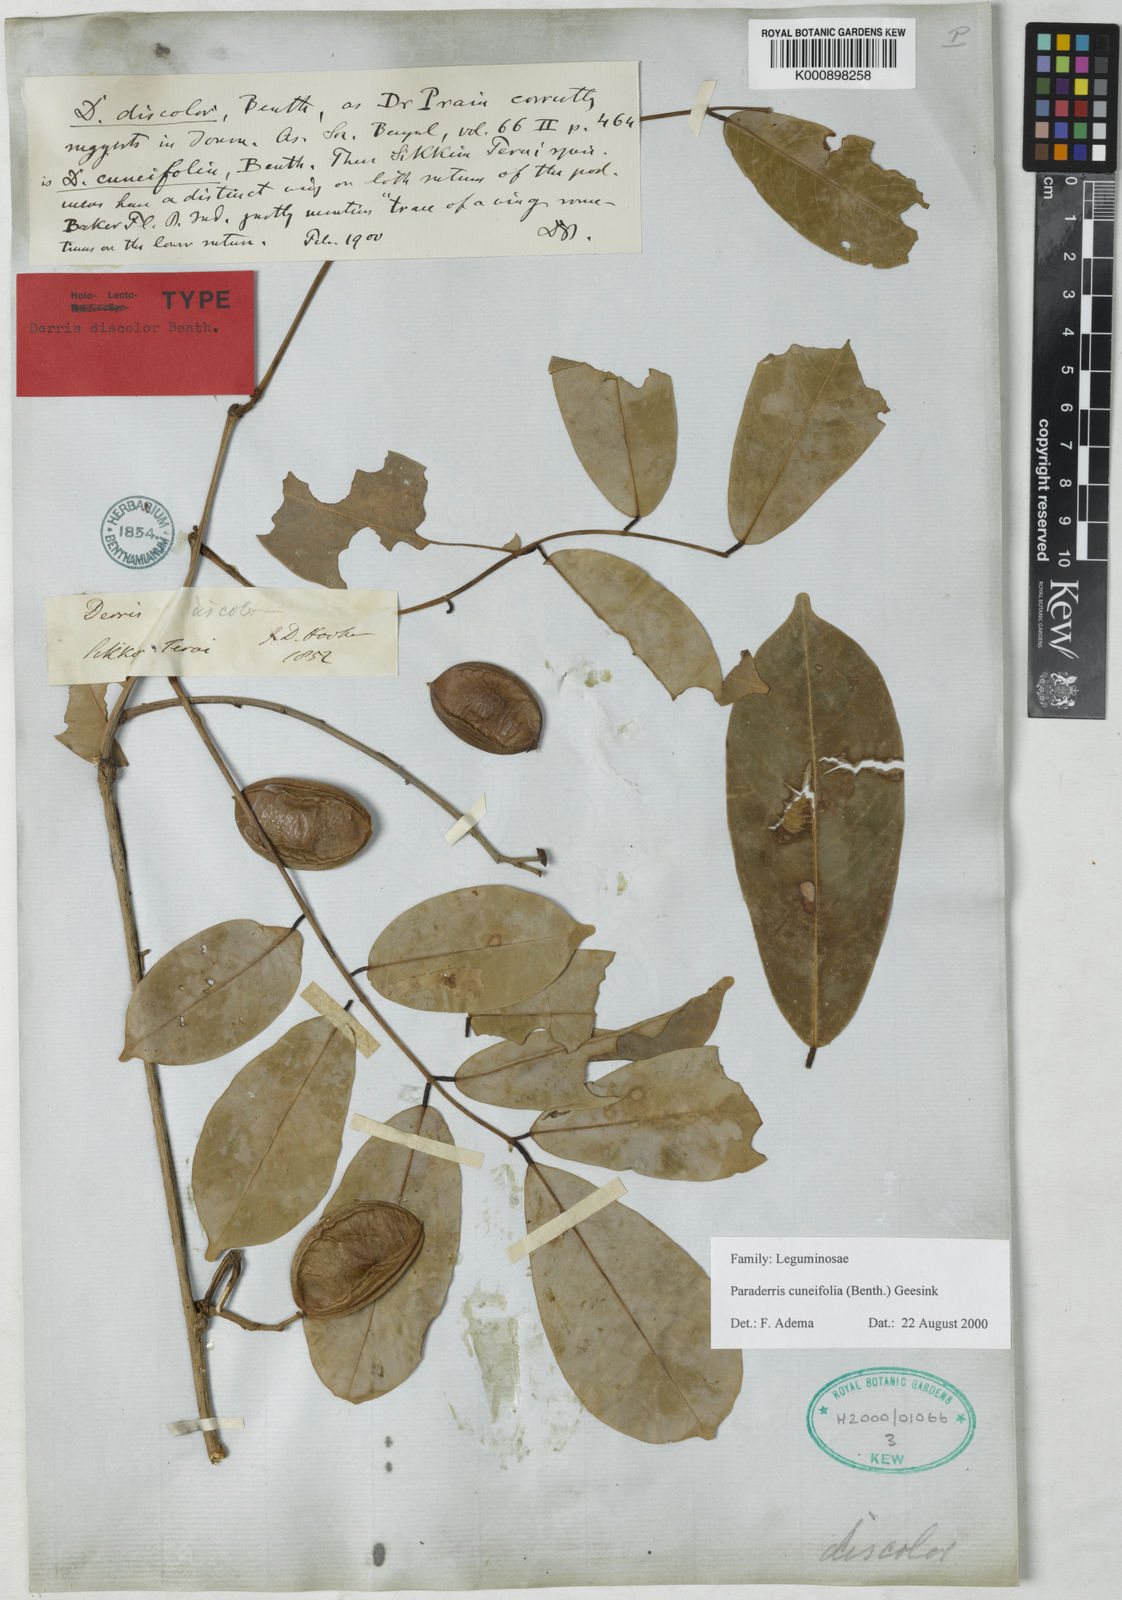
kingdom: Plantae
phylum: Tracheophyta
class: Magnoliopsida
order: Fabales
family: Fabaceae
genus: Derris
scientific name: Derris cuneifolia
